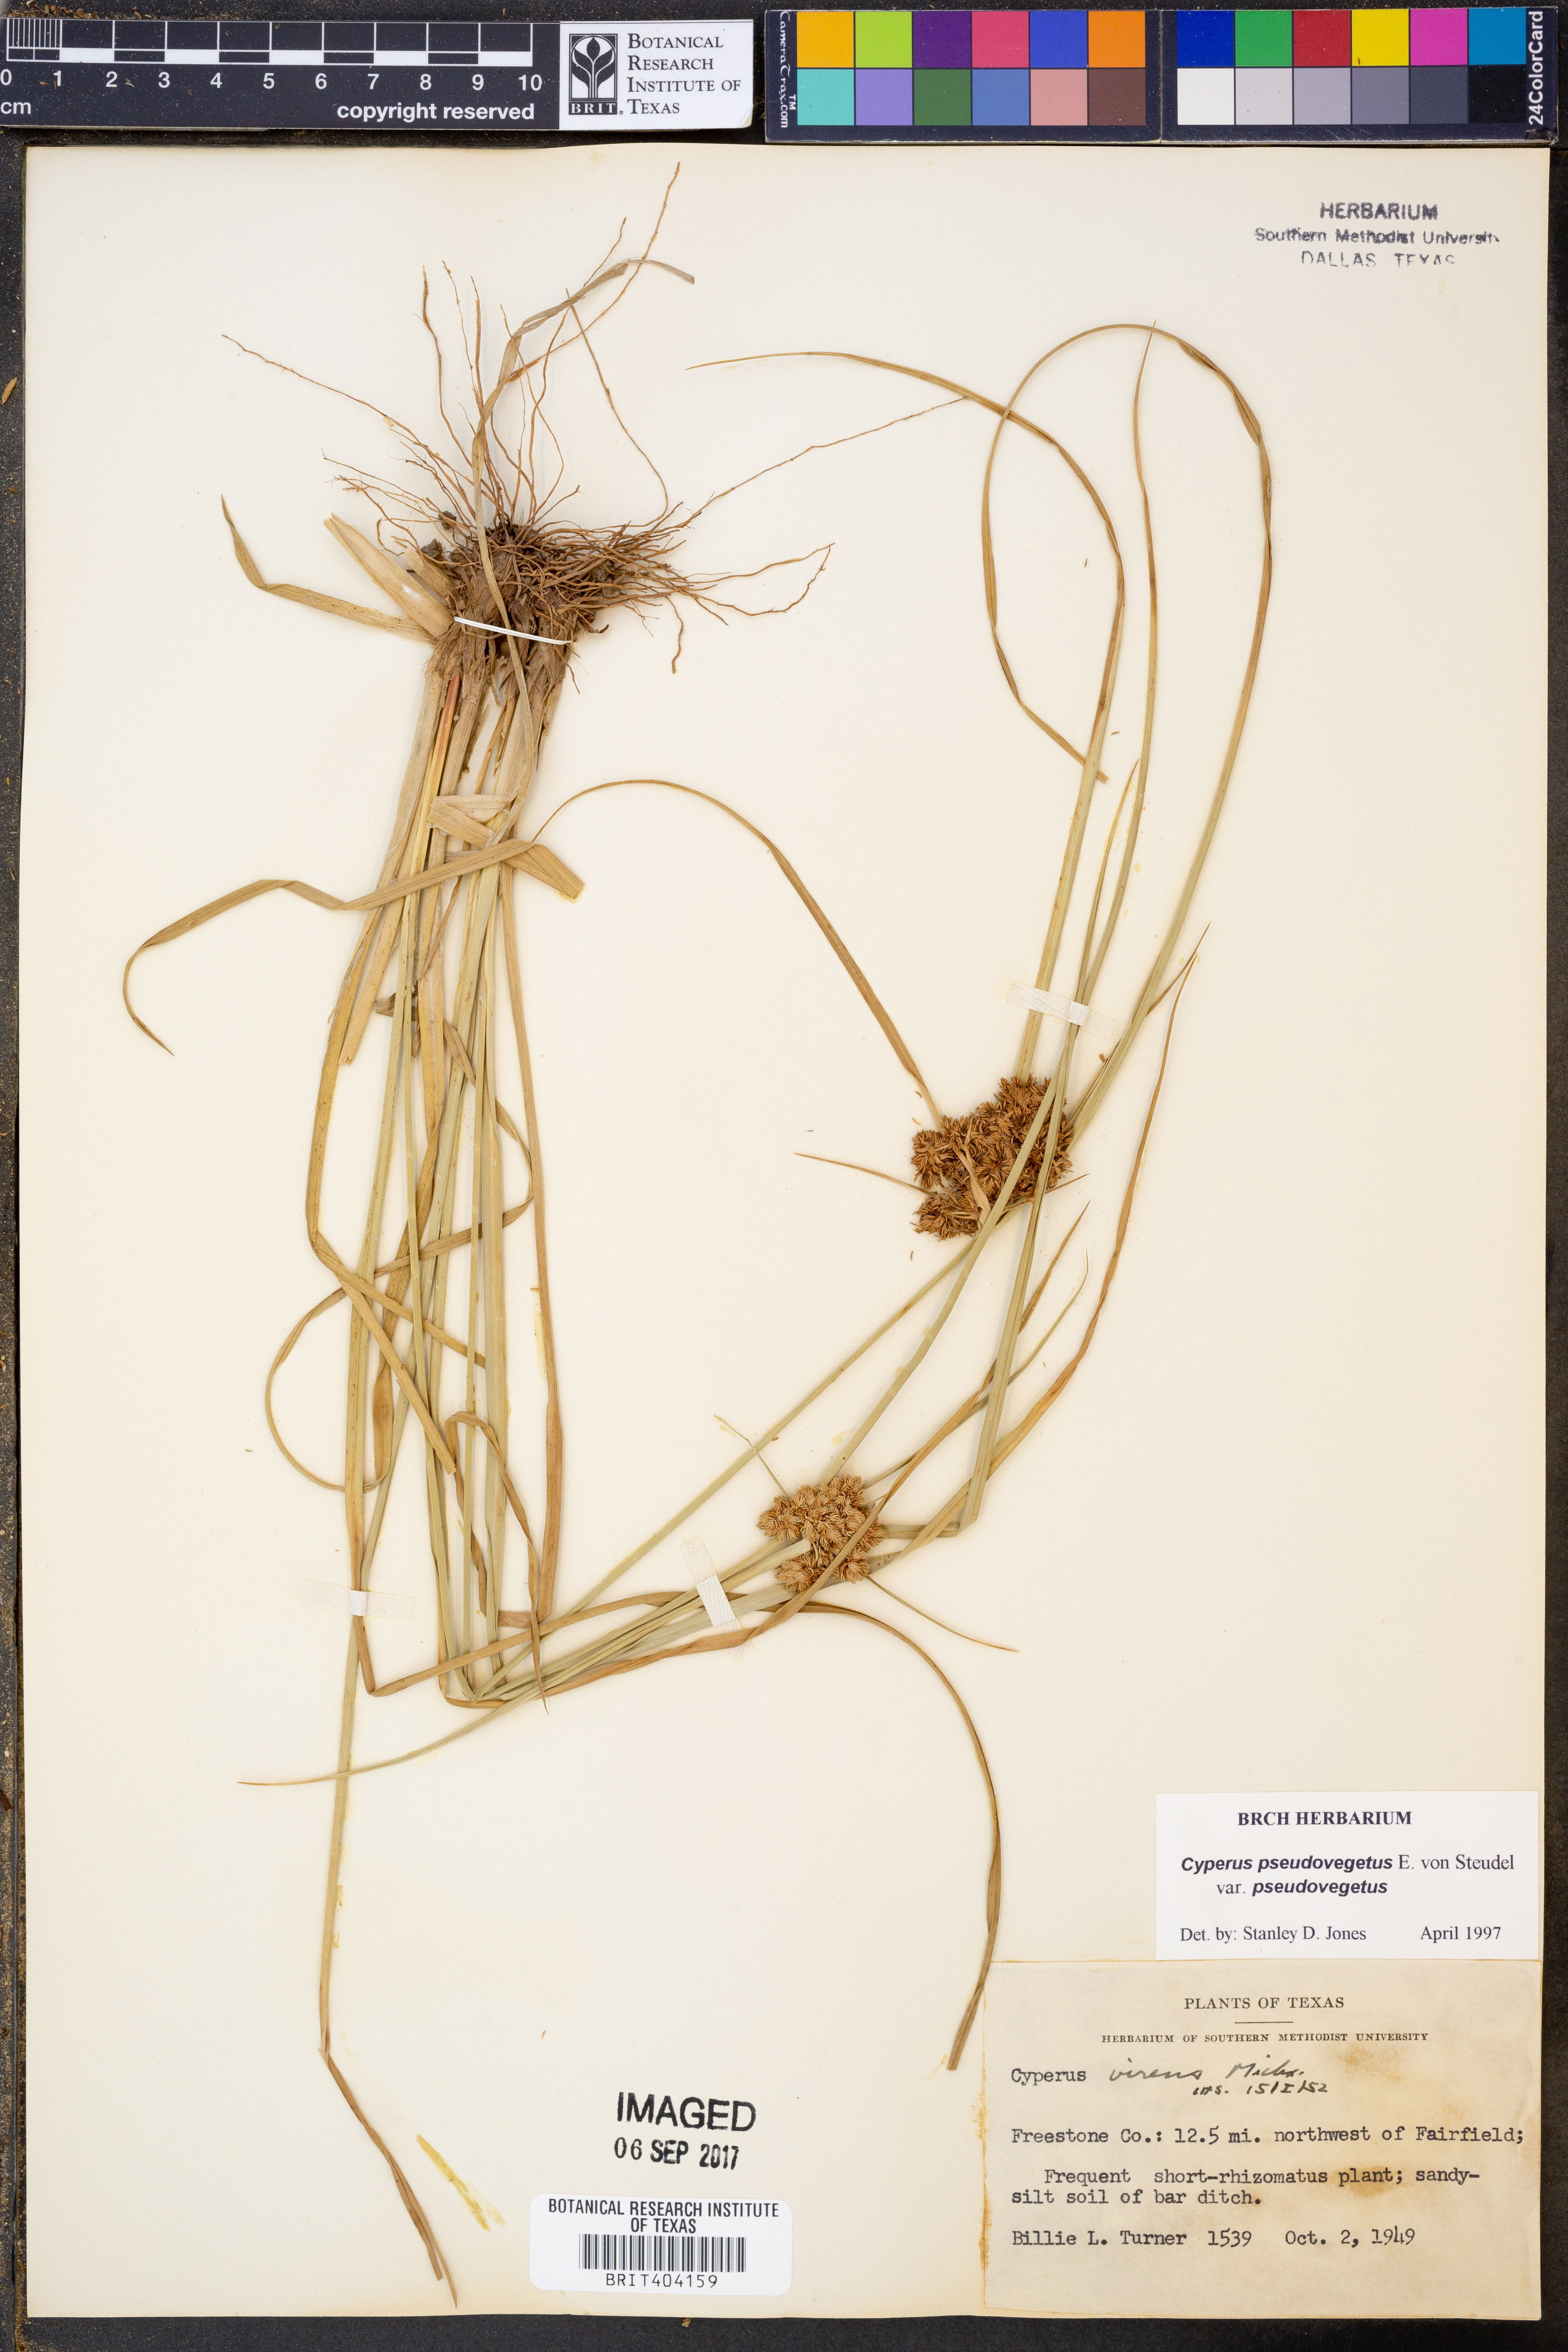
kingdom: Plantae
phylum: Tracheophyta
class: Liliopsida
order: Poales
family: Cyperaceae
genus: Cyperus
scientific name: Cyperus pseudovegetus
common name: Marsh flat sedge
